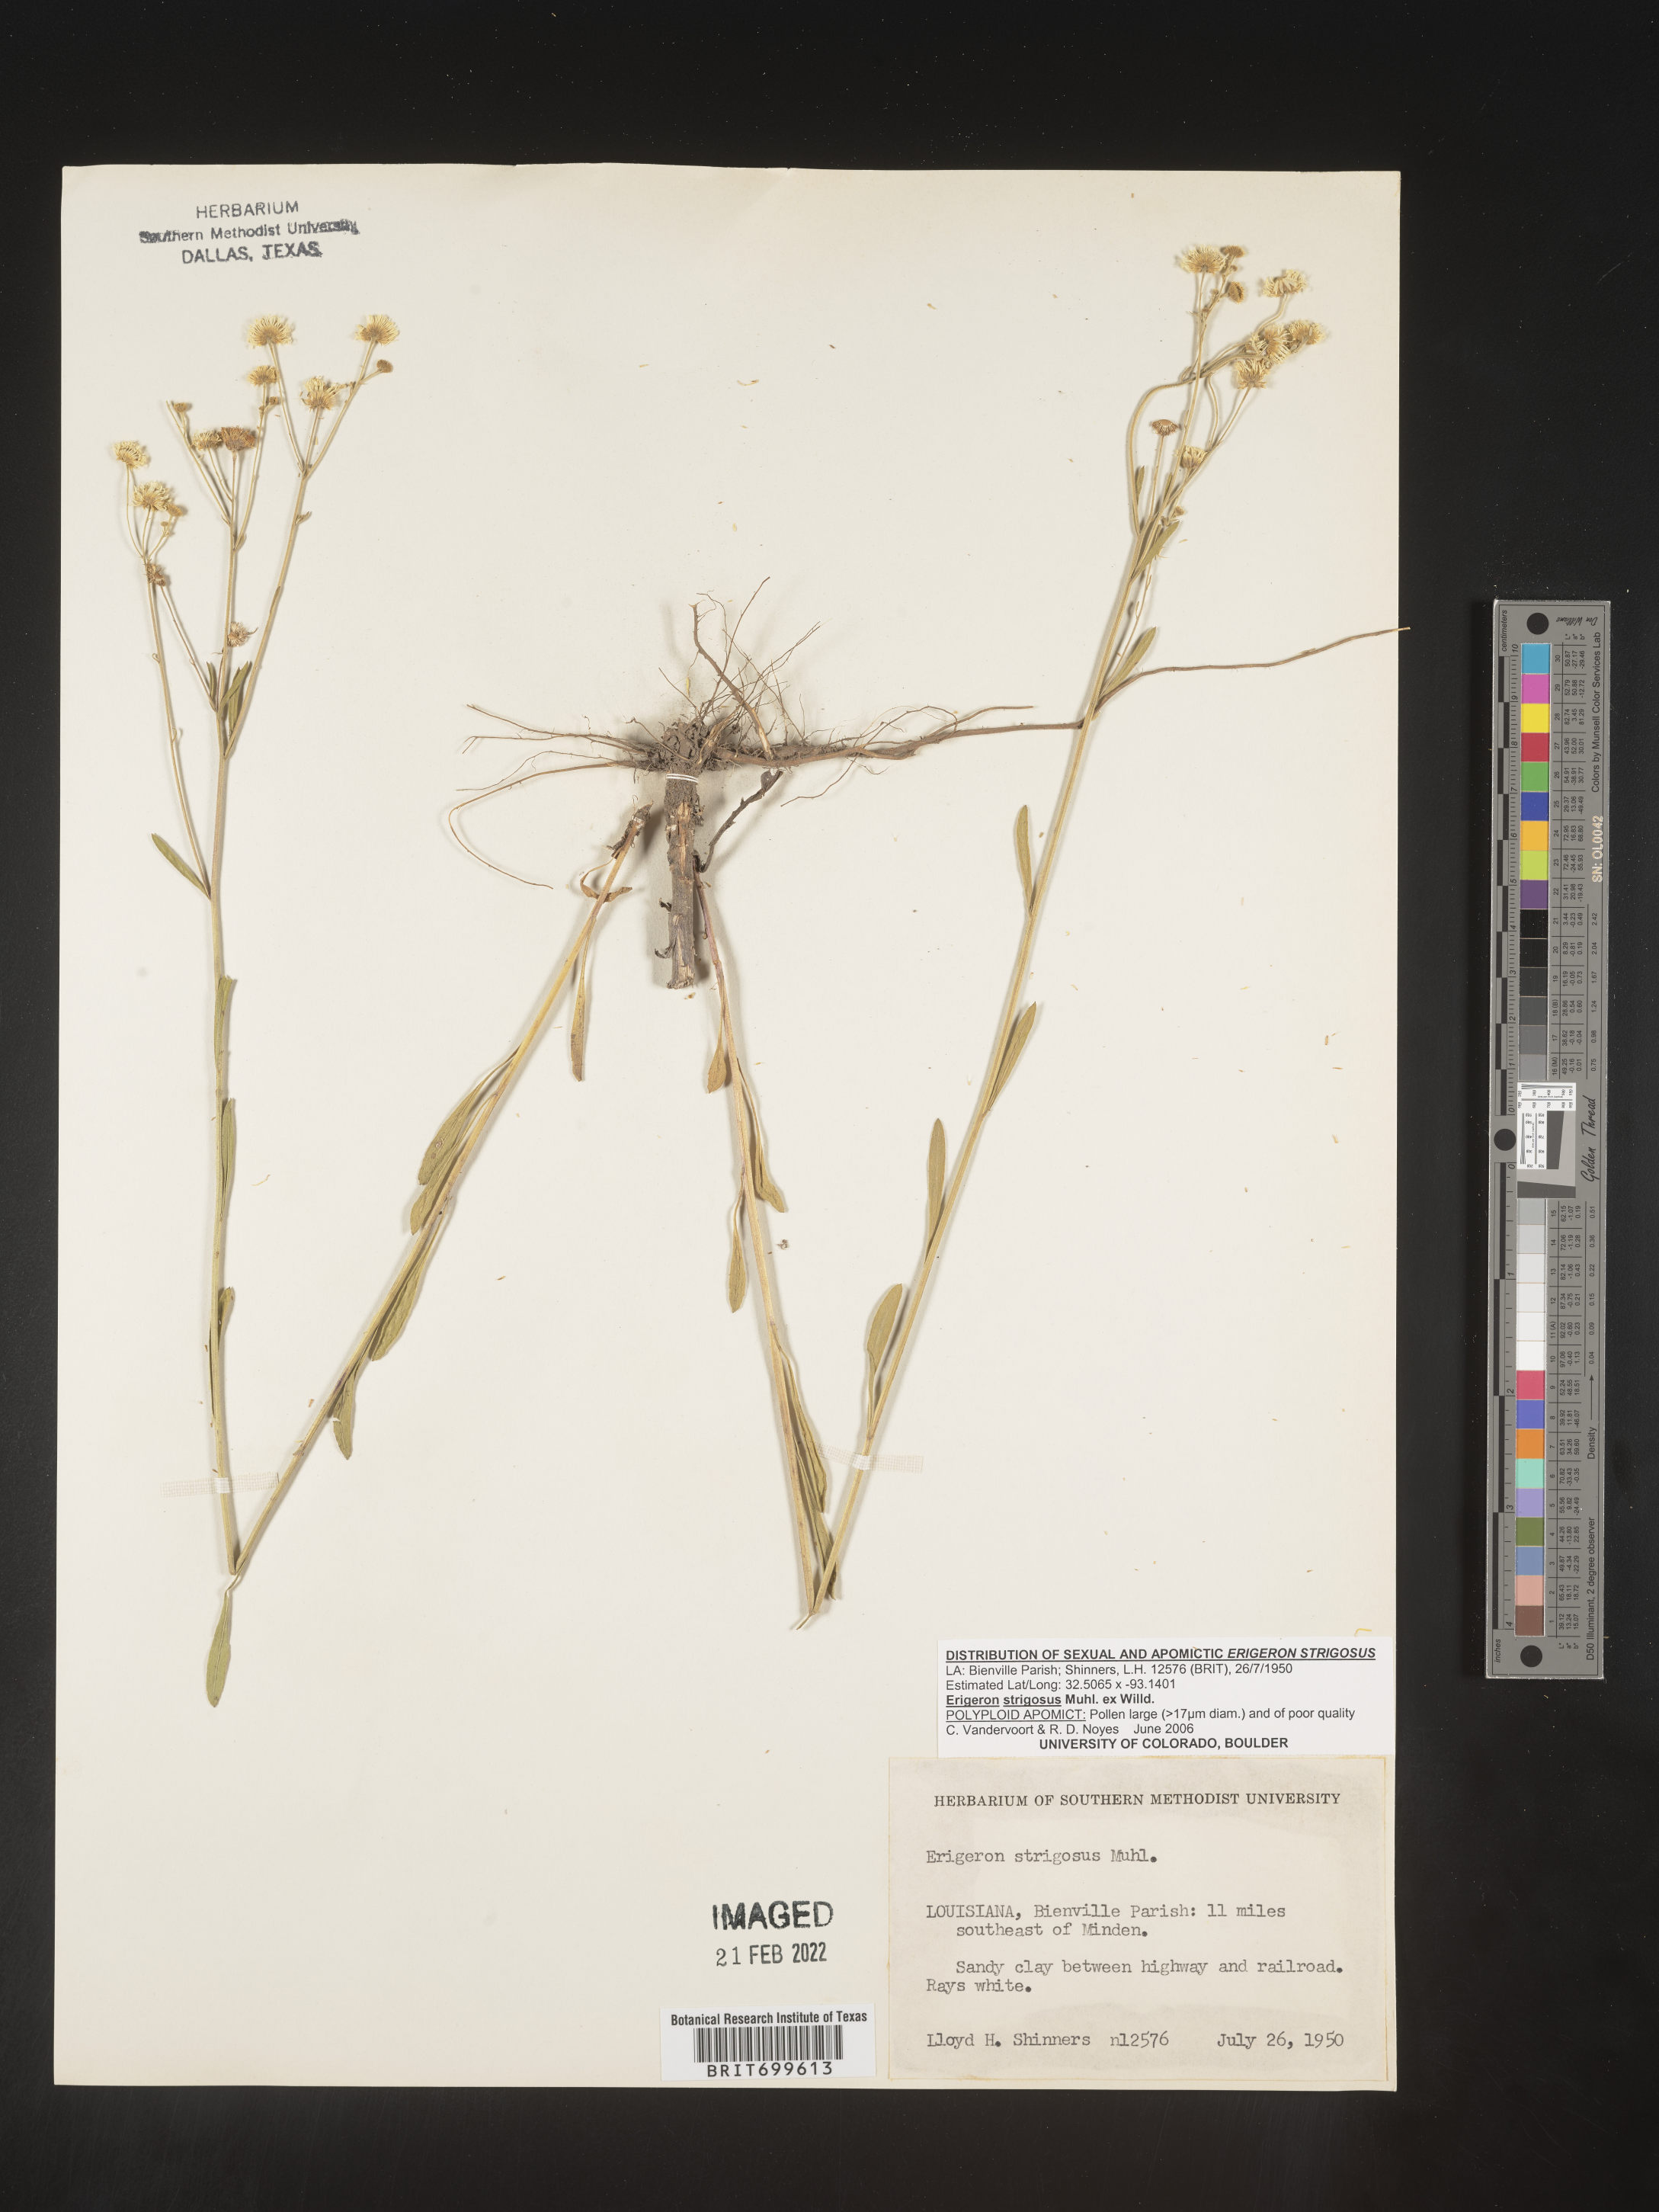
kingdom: Plantae
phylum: Tracheophyta
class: Magnoliopsida
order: Asterales
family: Asteraceae
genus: Erigeron
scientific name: Erigeron strigosus
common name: Common eastern fleabane
